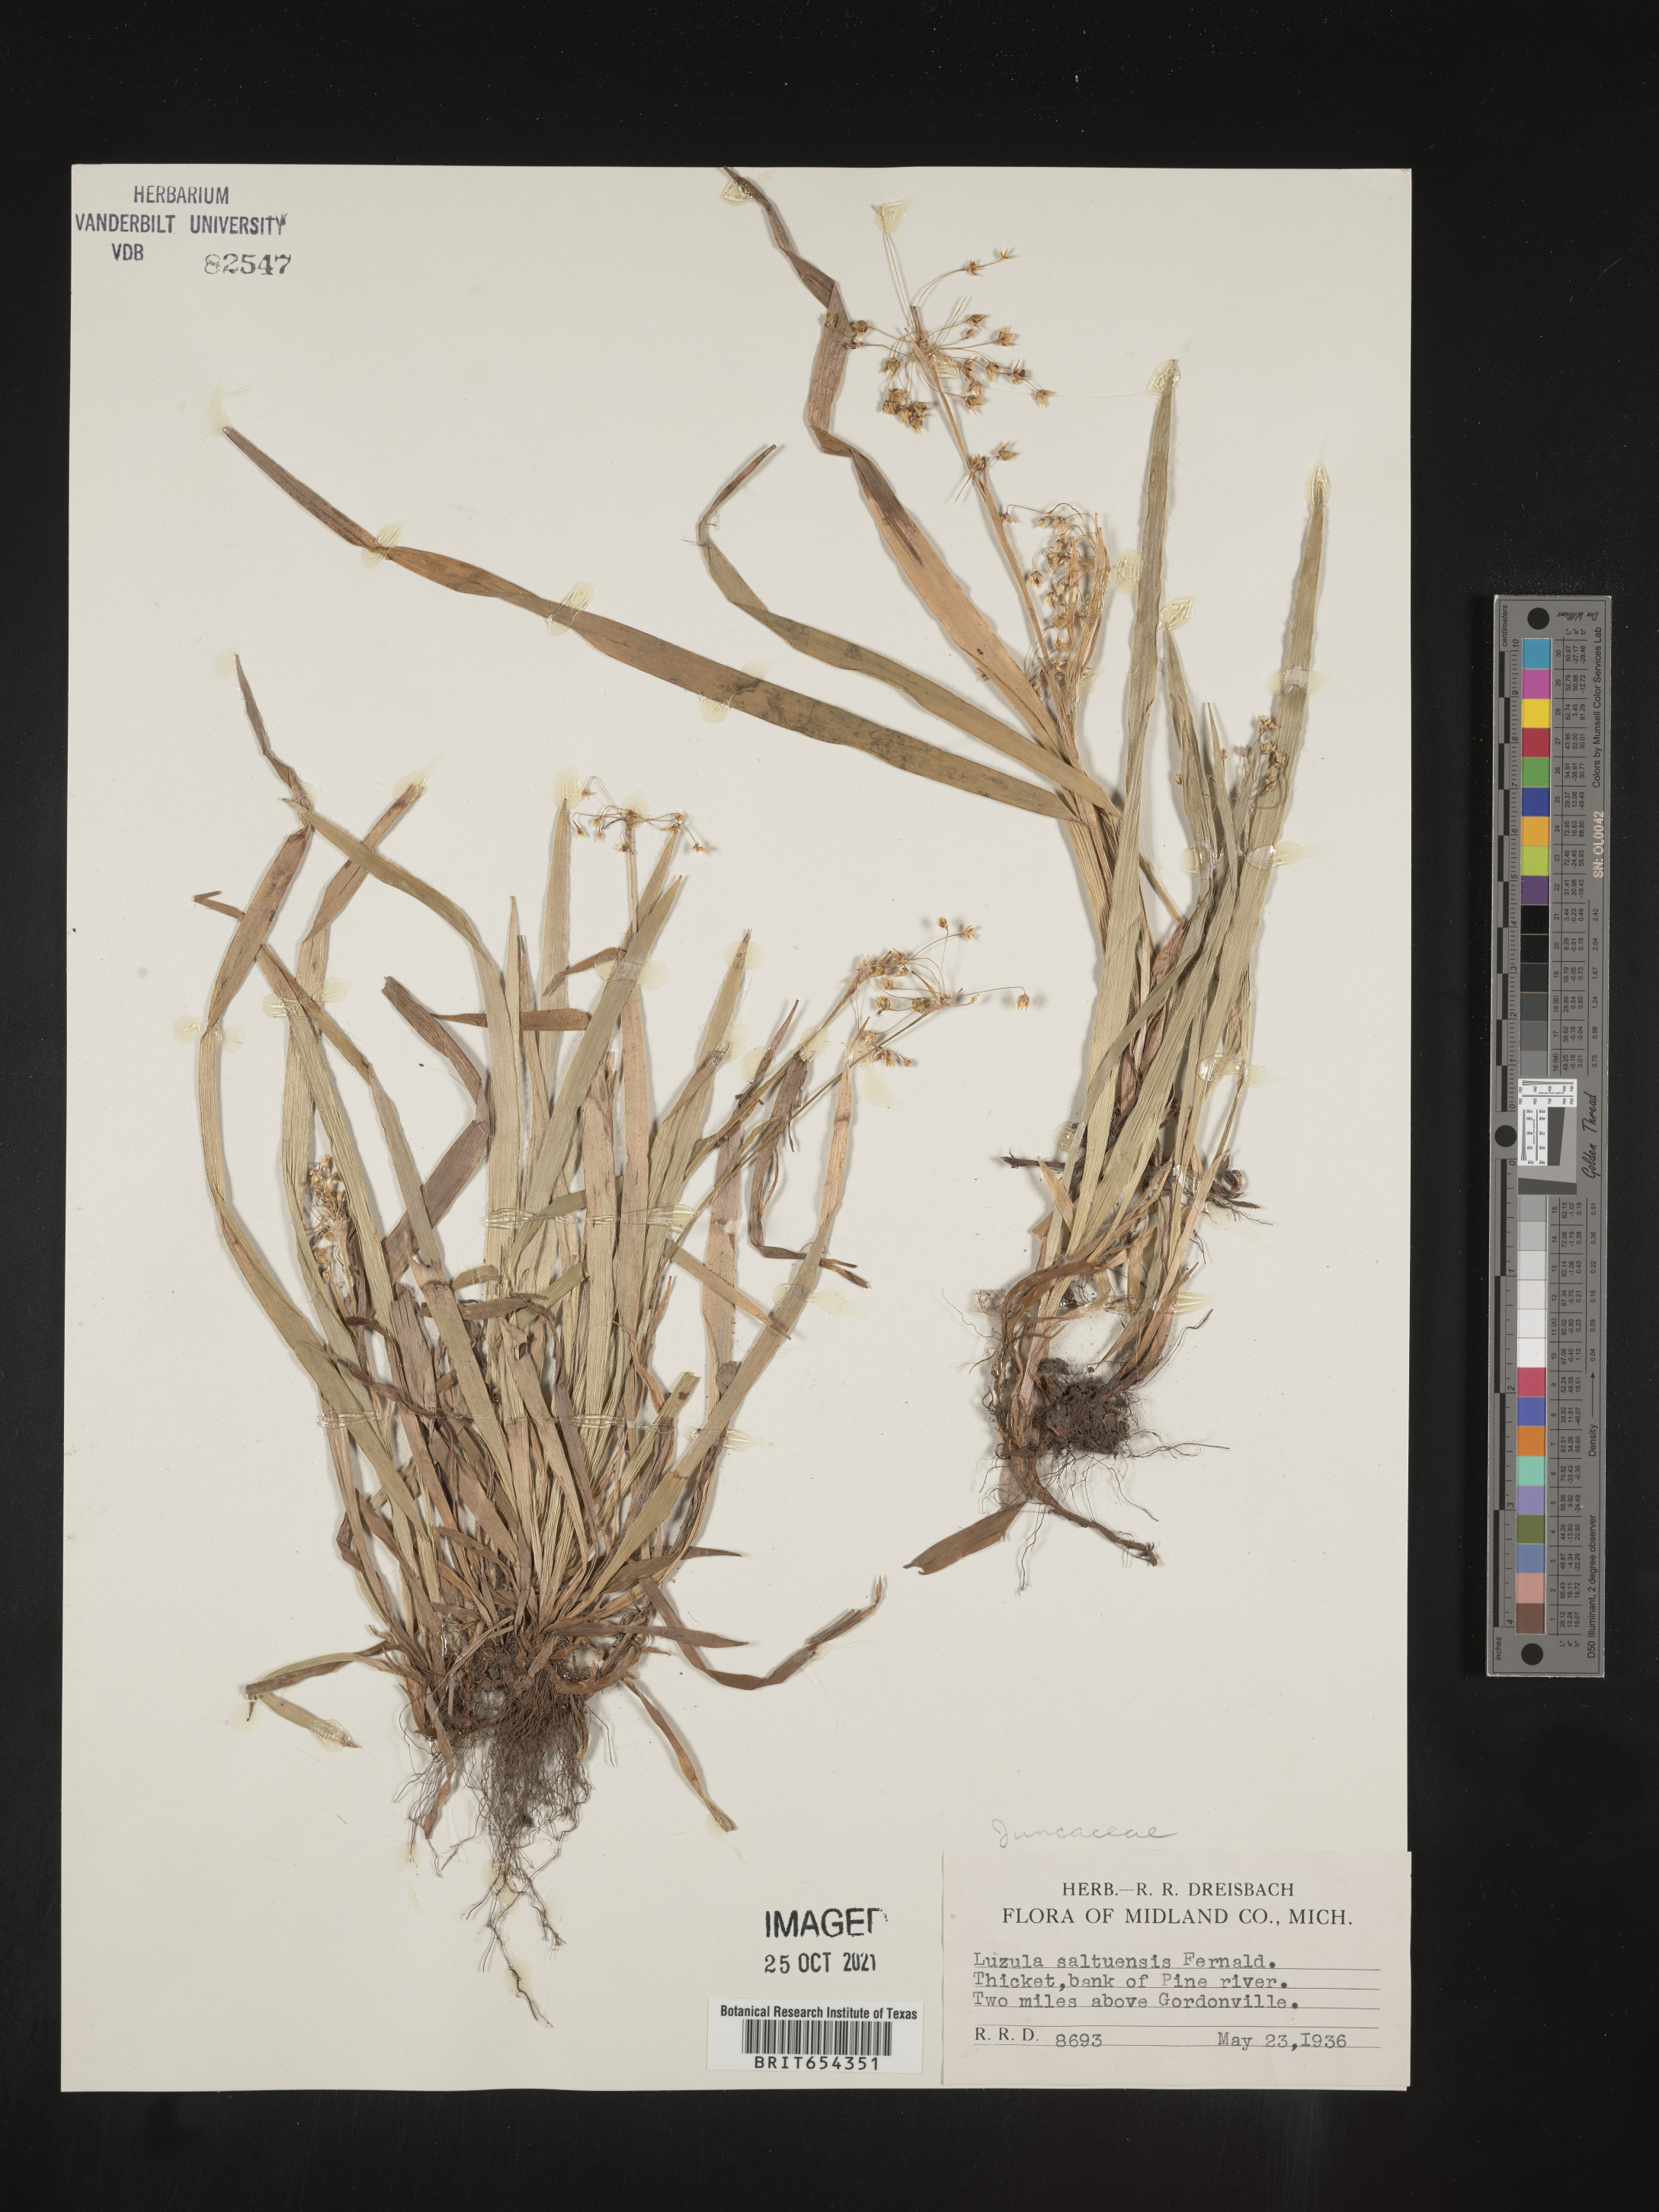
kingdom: Plantae
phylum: Tracheophyta
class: Liliopsida
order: Poales
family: Juncaceae
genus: Luzula
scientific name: Luzula
